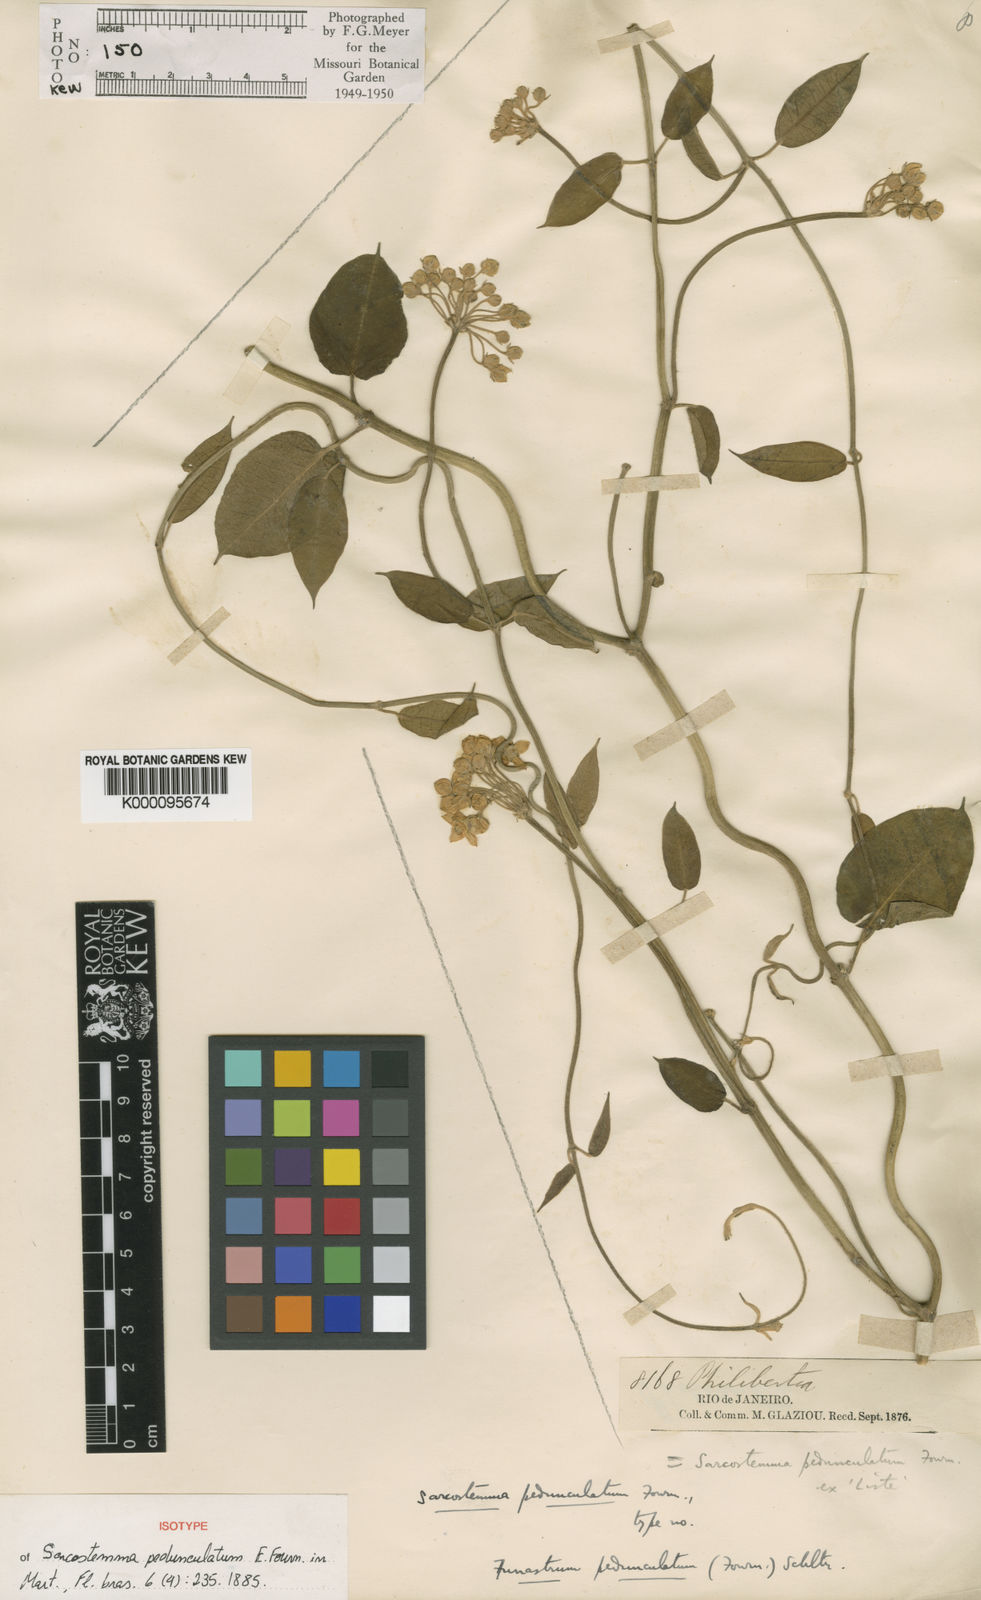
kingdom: Plantae
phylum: Tracheophyta
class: Magnoliopsida
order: Gentianales
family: Apocynaceae
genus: Funastrum
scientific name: Funastrum clausum
